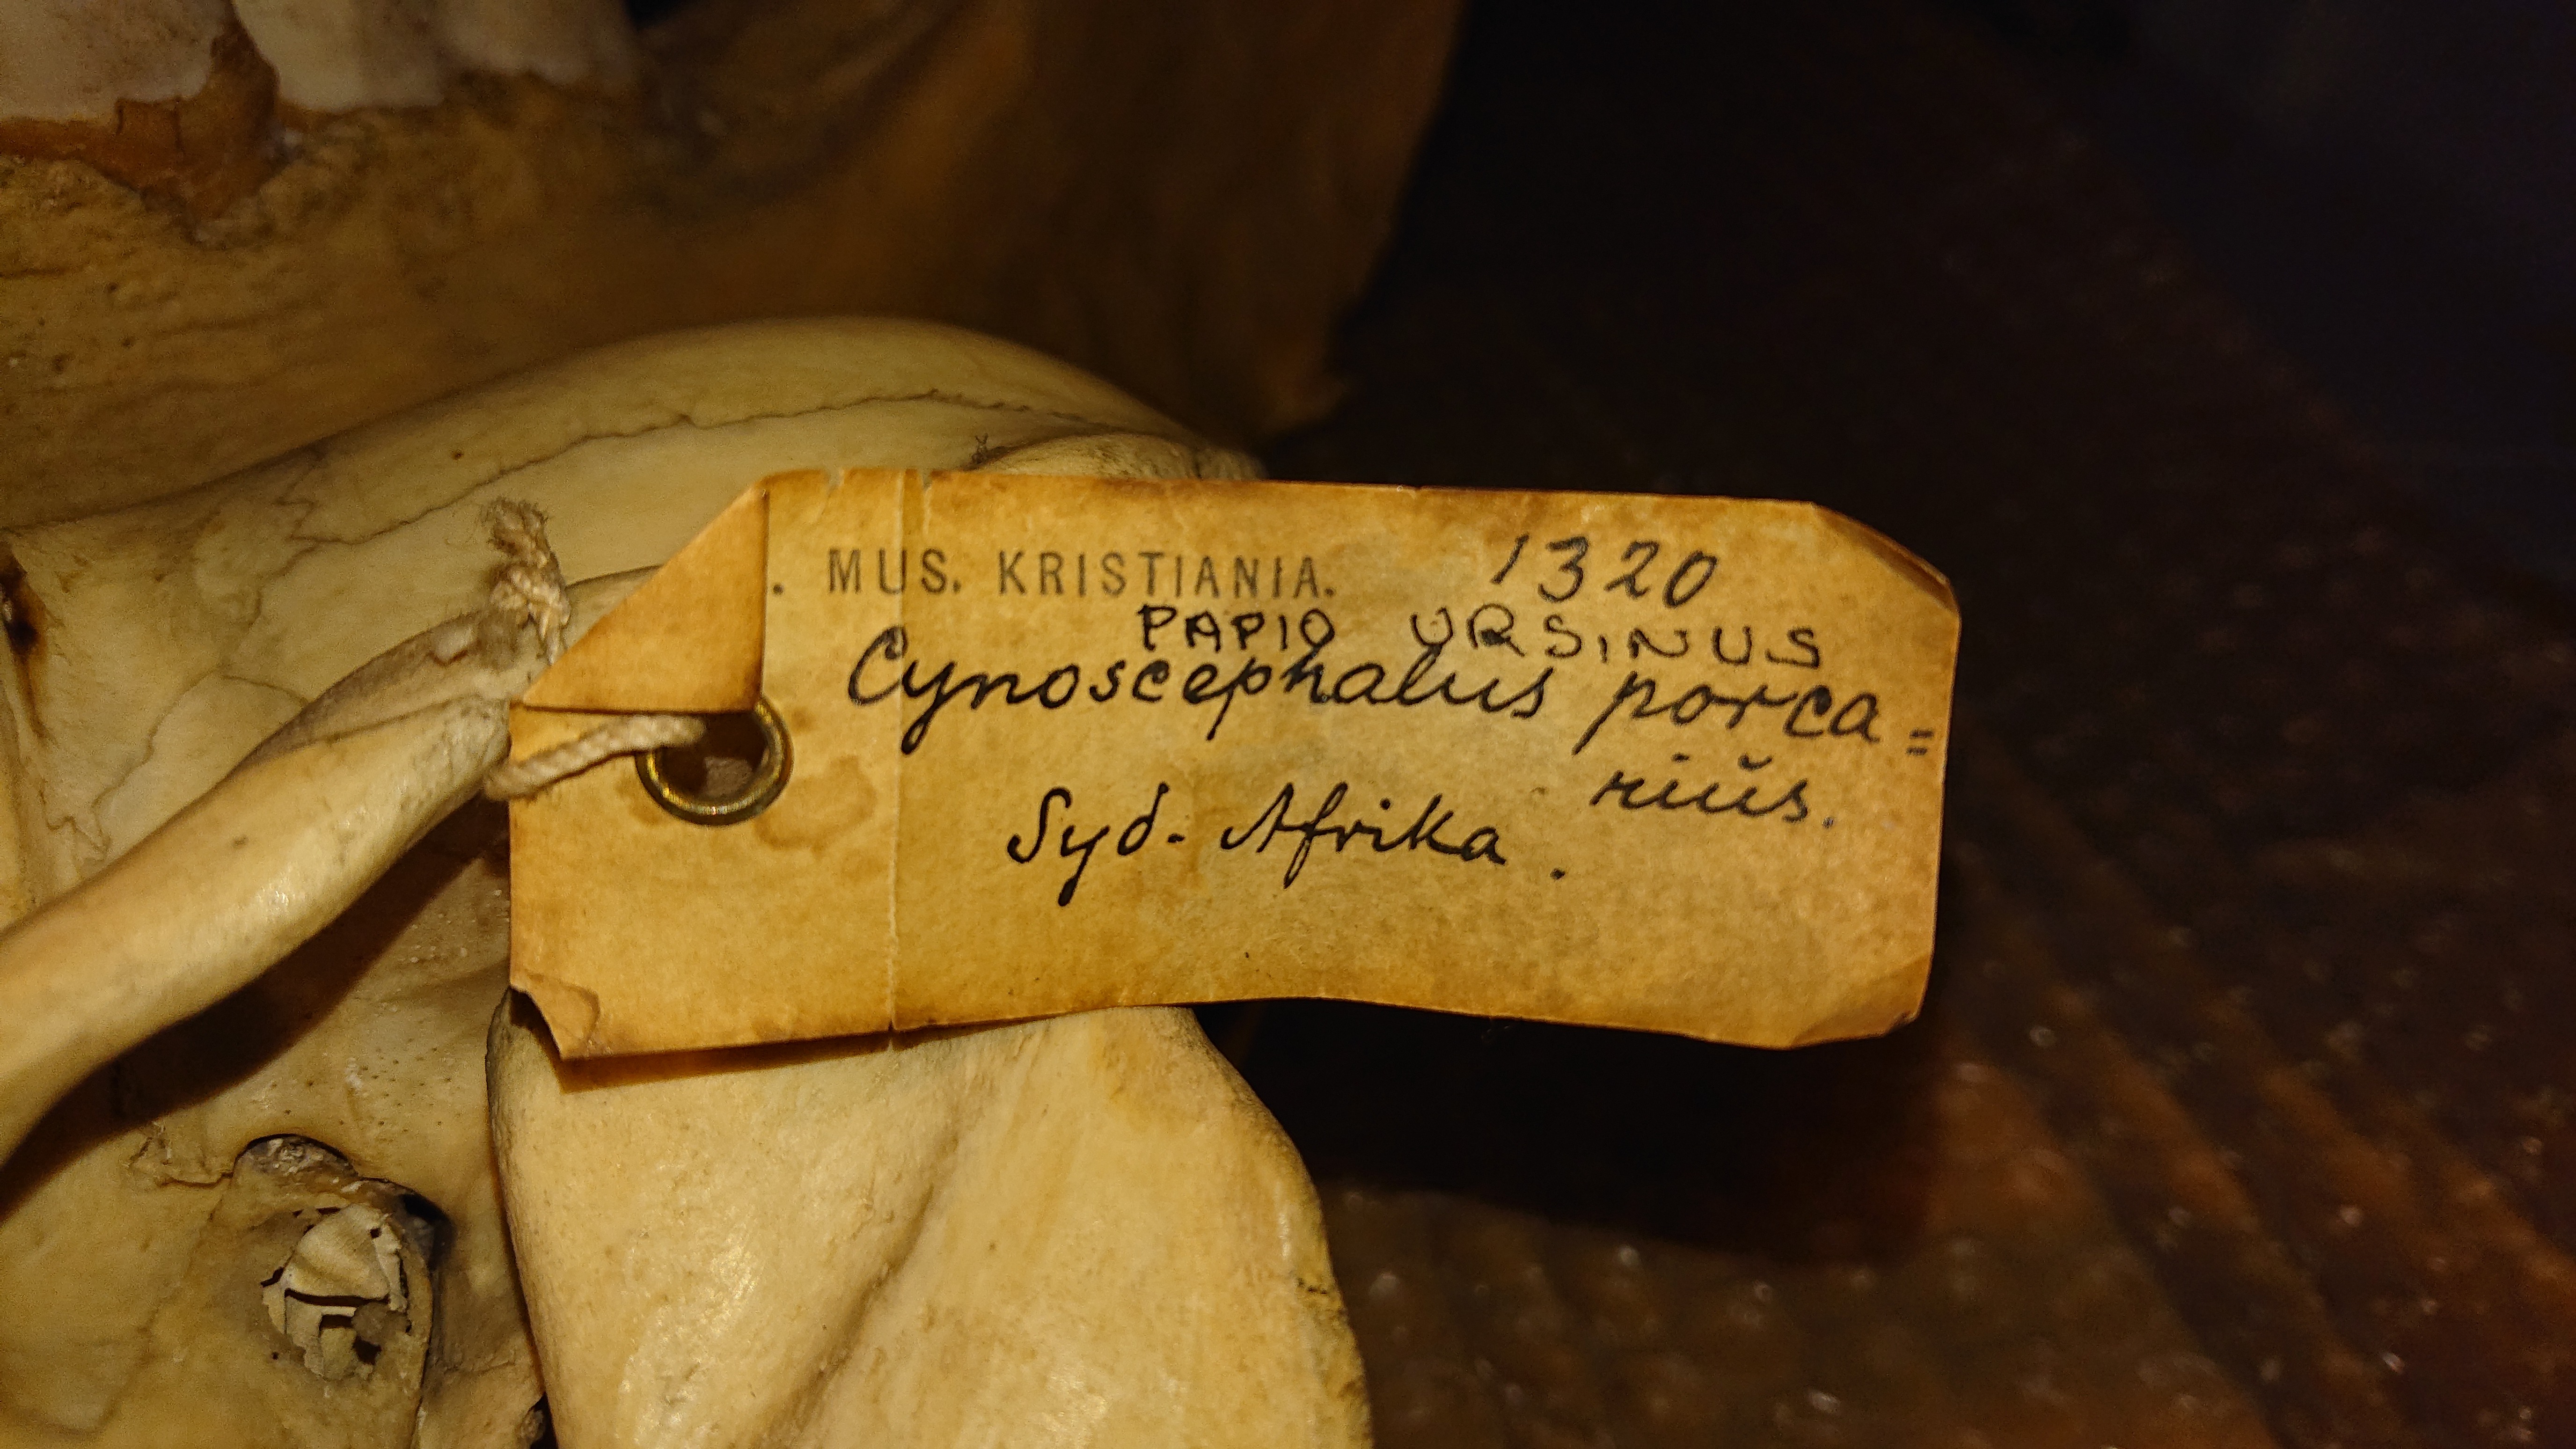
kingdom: Animalia
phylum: Chordata
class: Mammalia
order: Primates
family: Cercopithecidae
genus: Papio
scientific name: Papio ursinus
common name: Chacma baboon
